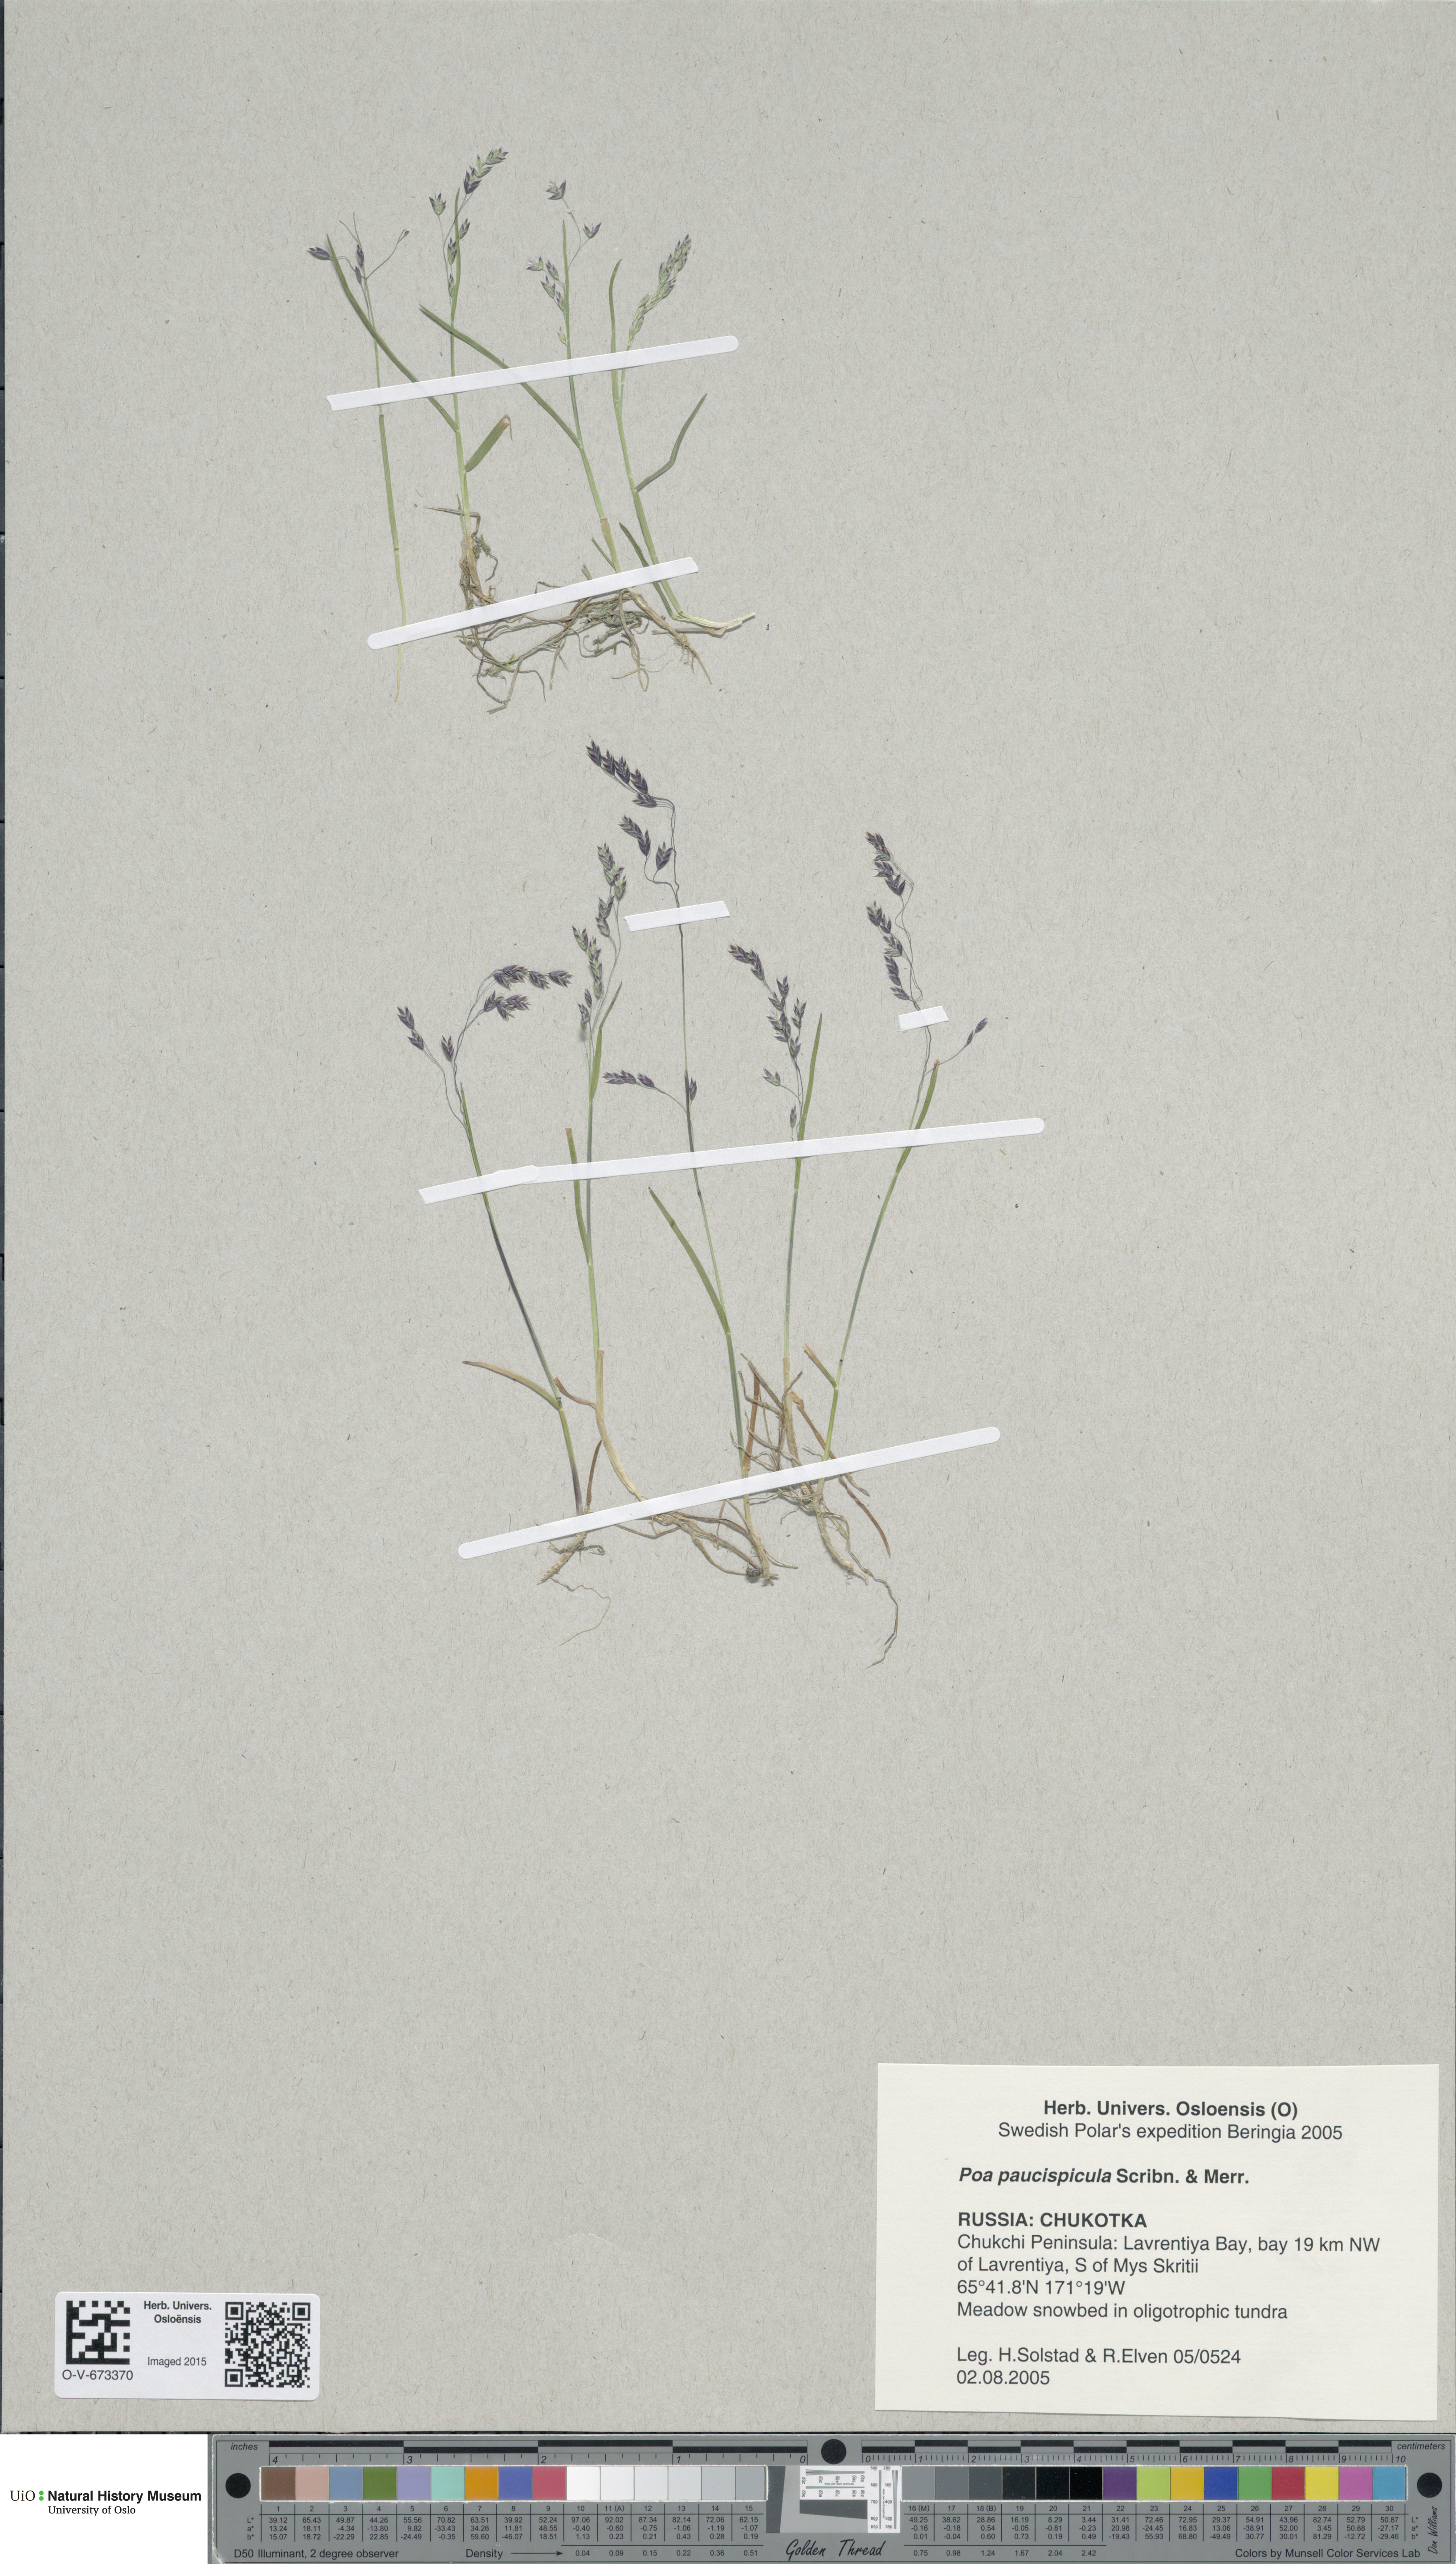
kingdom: Plantae
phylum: Tracheophyta
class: Liliopsida
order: Poales
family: Poaceae
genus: Poa
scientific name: Poa paucispicula
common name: Alaska bluegrass
